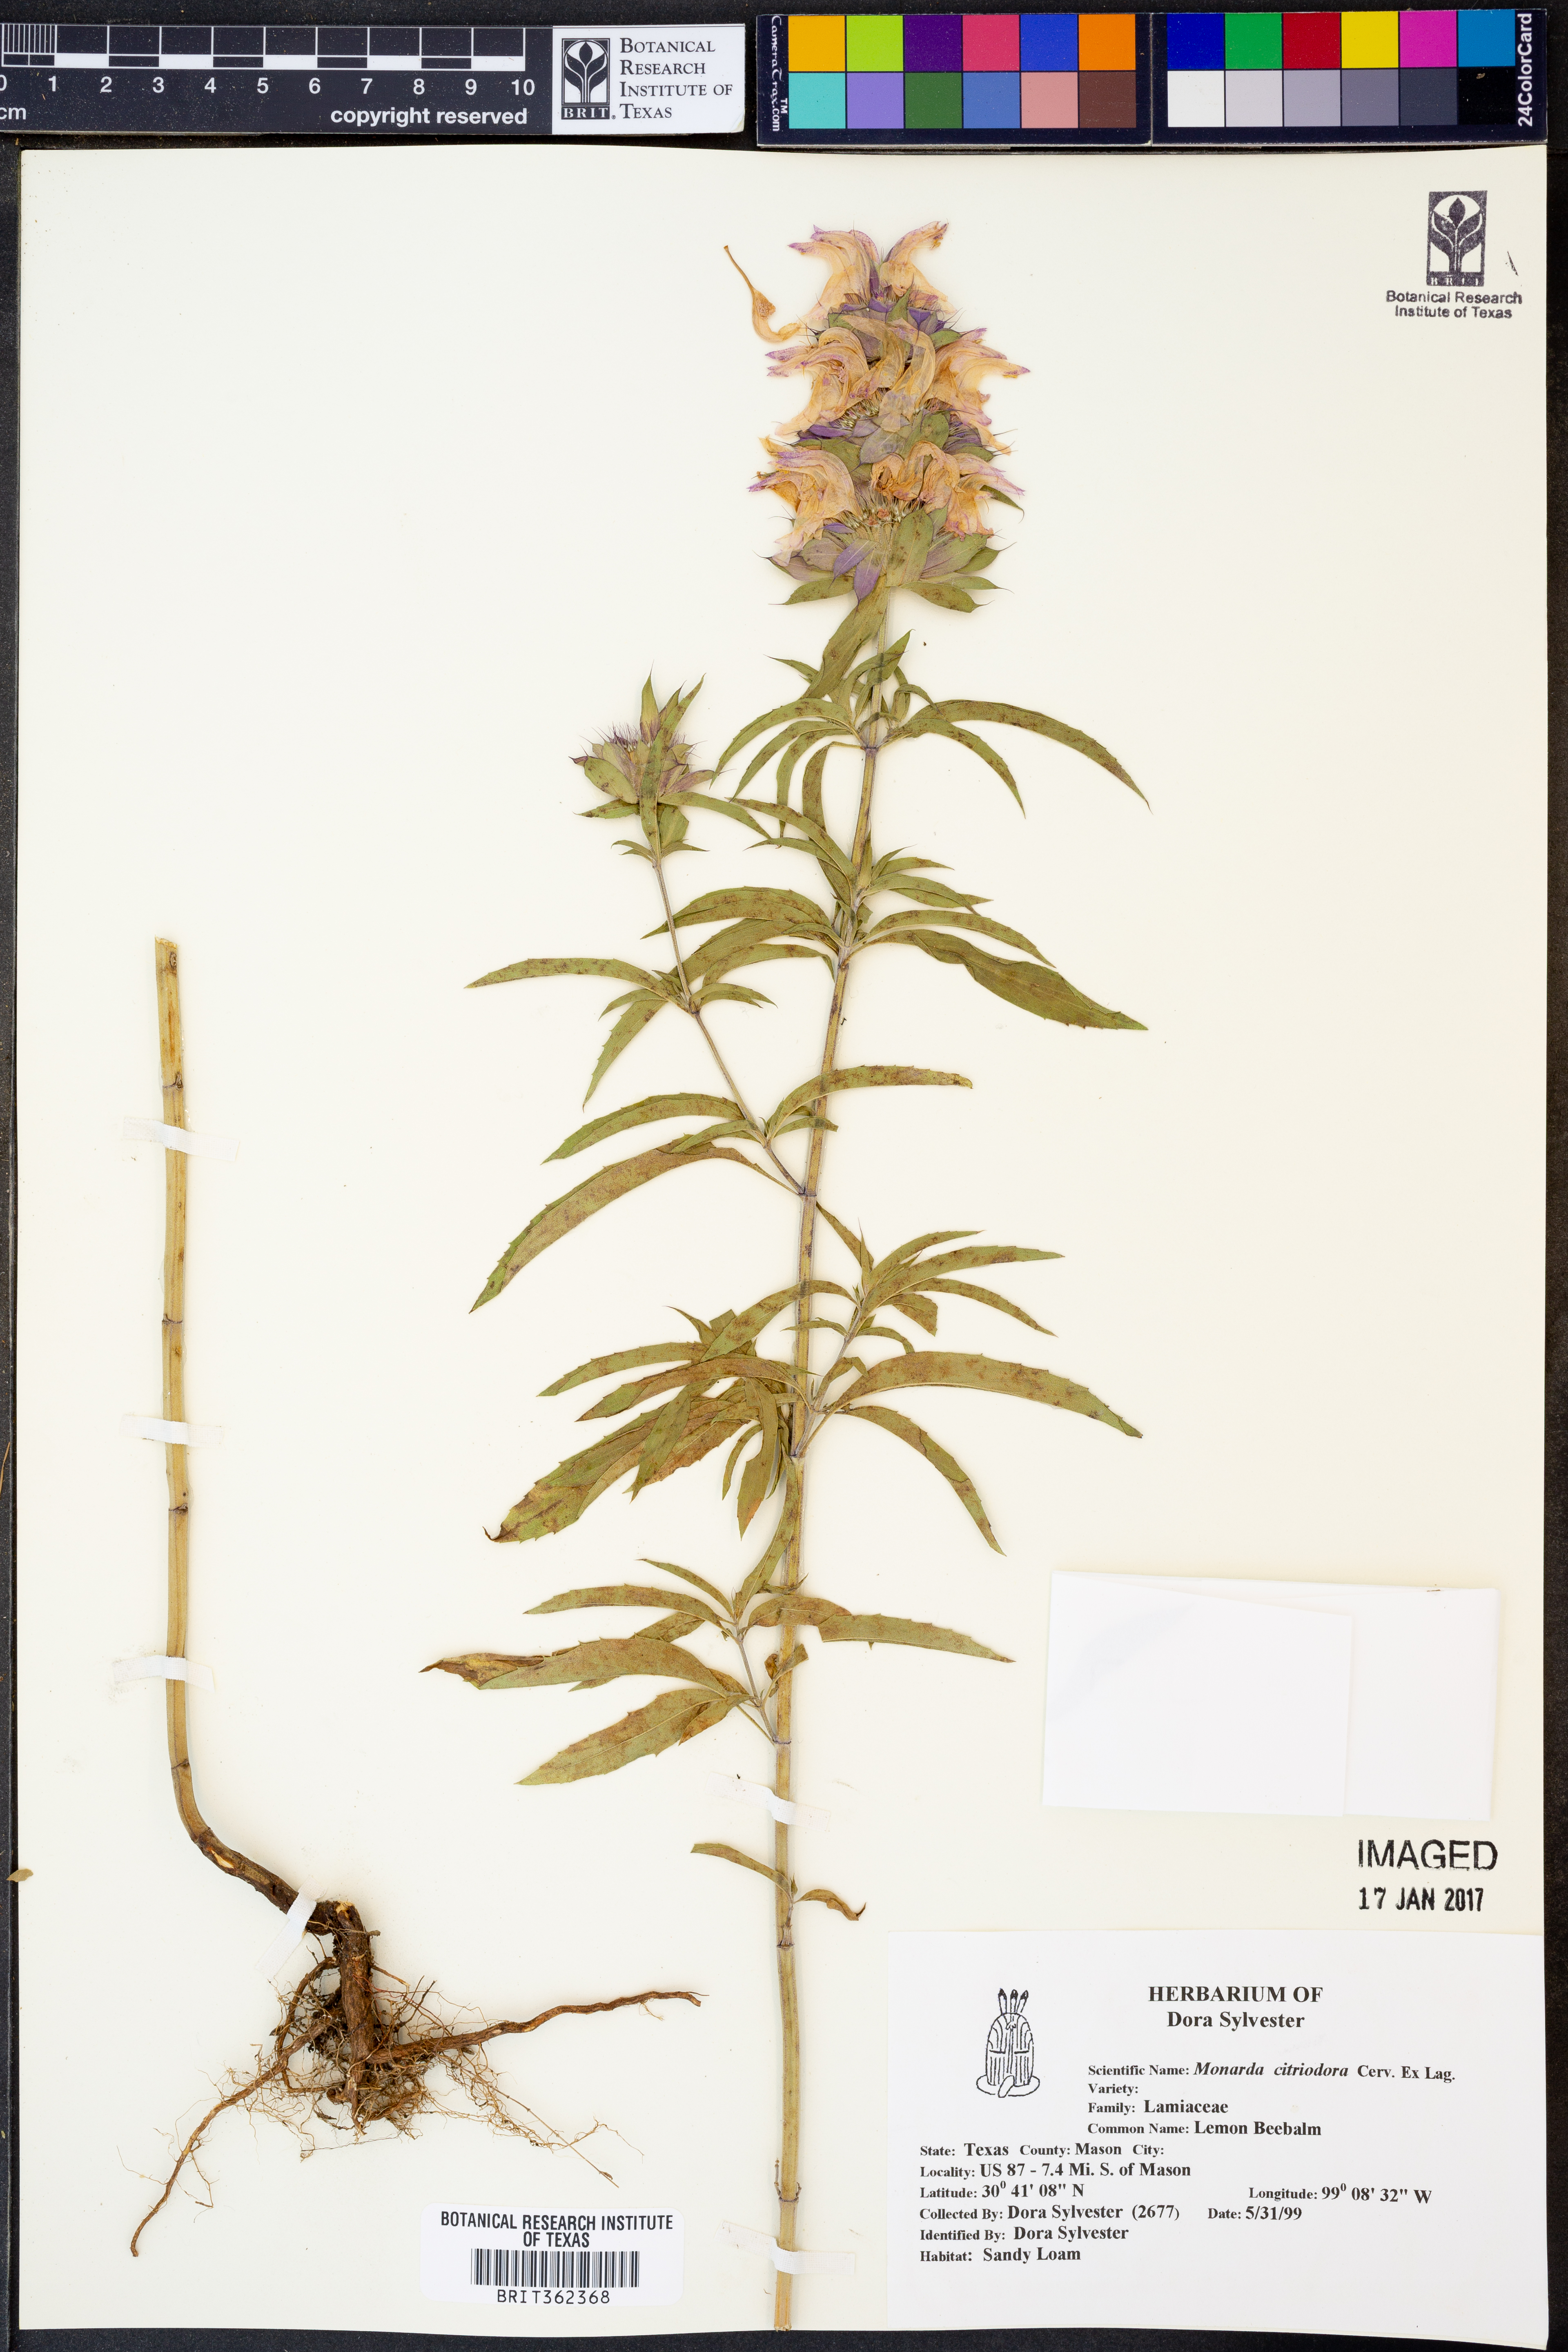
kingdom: Plantae
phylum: Tracheophyta
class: Magnoliopsida
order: Lamiales
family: Lamiaceae
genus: Monarda
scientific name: Monarda citriodora
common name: Lemon beebalm
